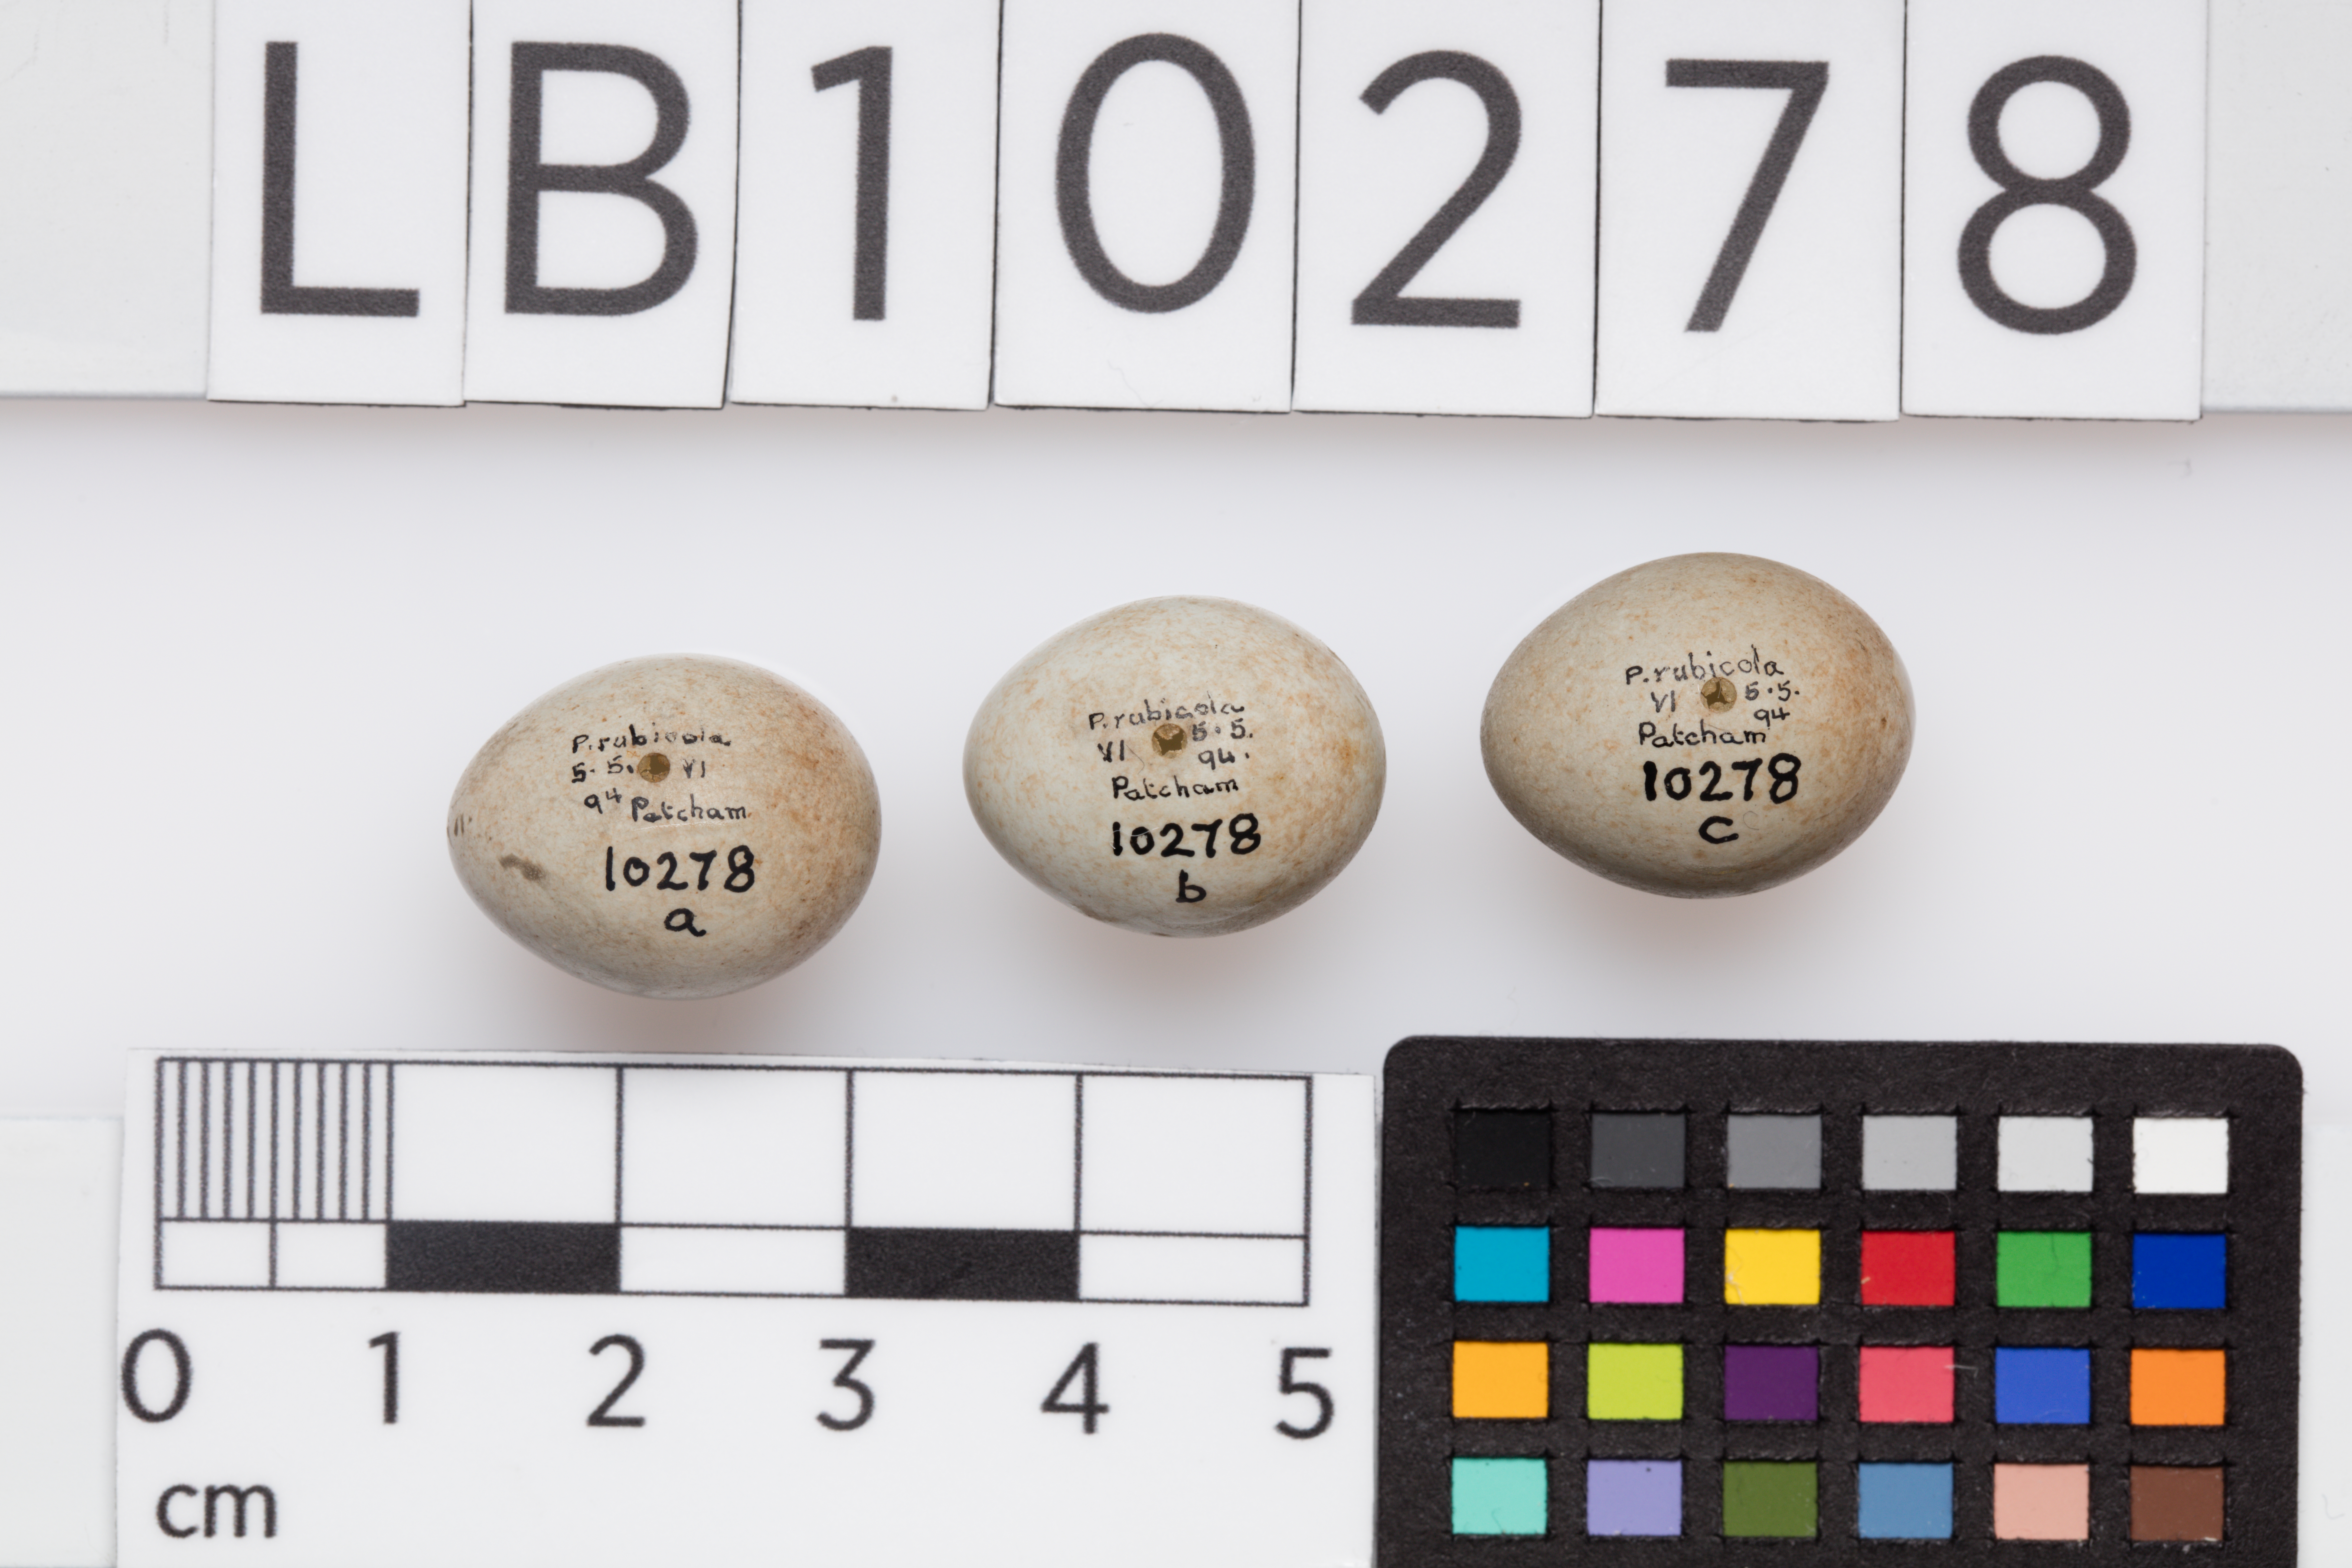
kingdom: Animalia
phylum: Chordata
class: Aves
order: Passeriformes
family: Muscicapidae
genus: Saxicola
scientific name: Saxicola torquatus
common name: African stonechat
